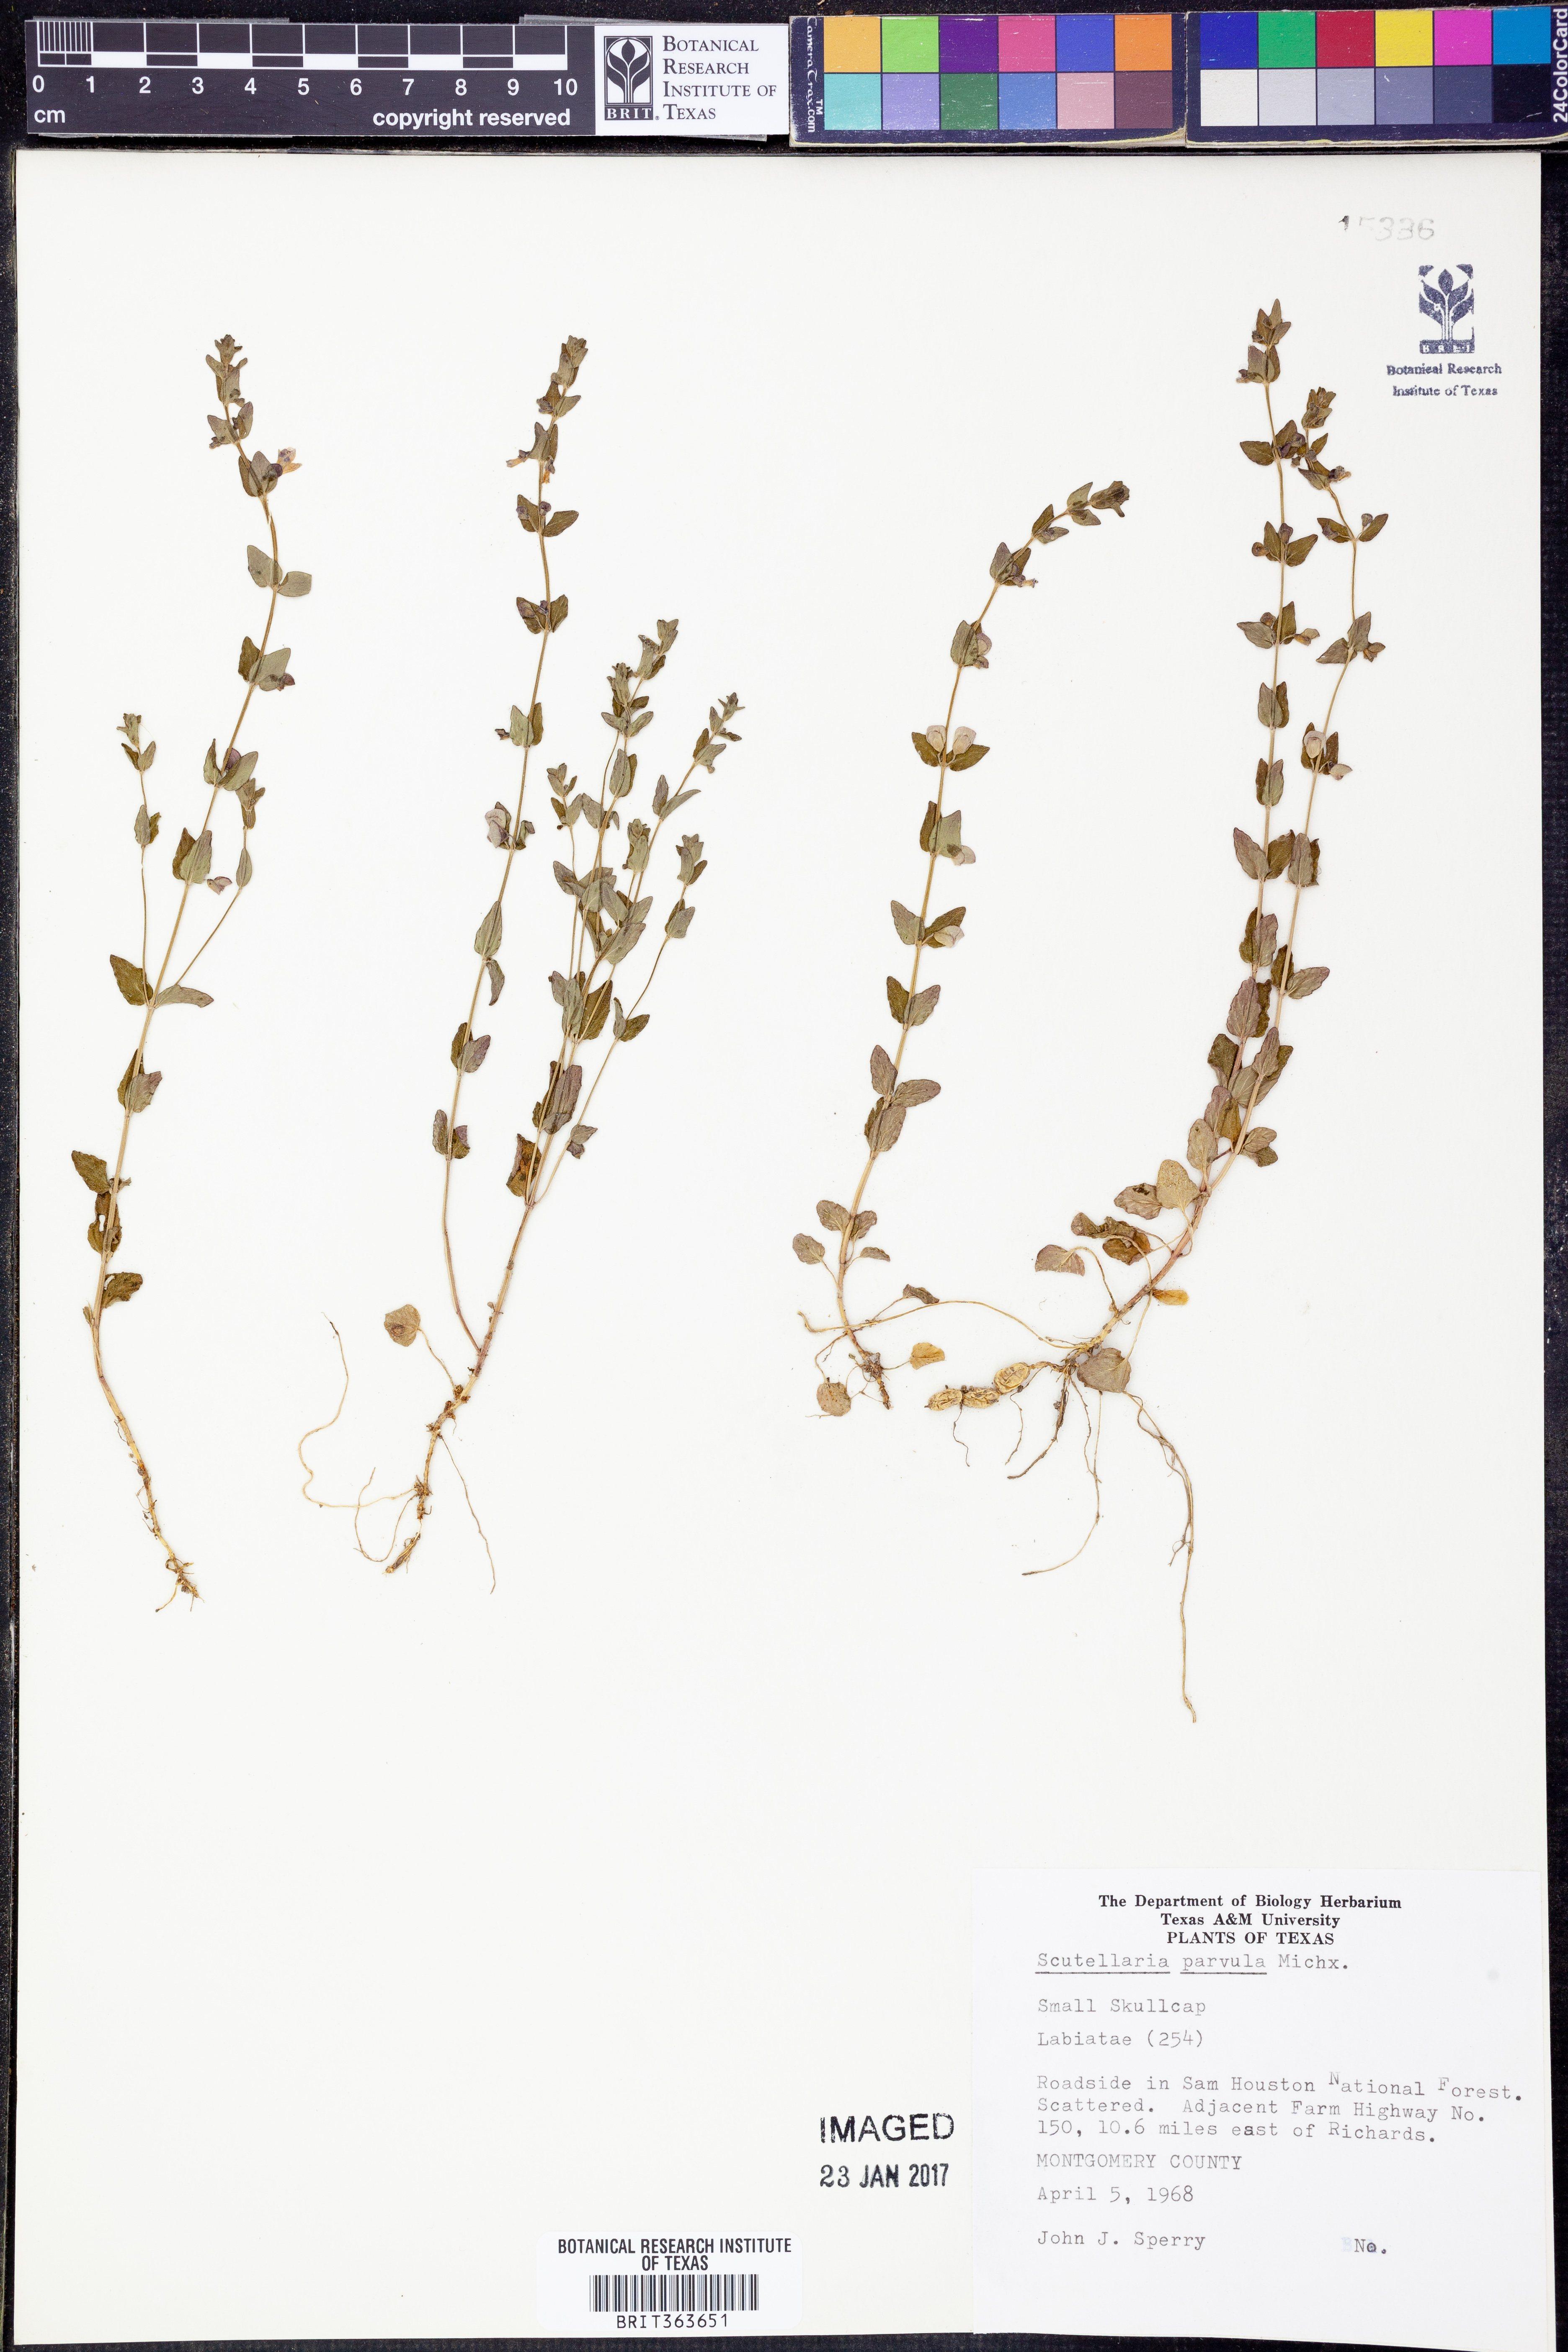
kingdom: Plantae
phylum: Tracheophyta
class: Magnoliopsida
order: Lamiales
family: Lamiaceae
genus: Scutellaria
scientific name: Scutellaria parvula
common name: Little scullcap
